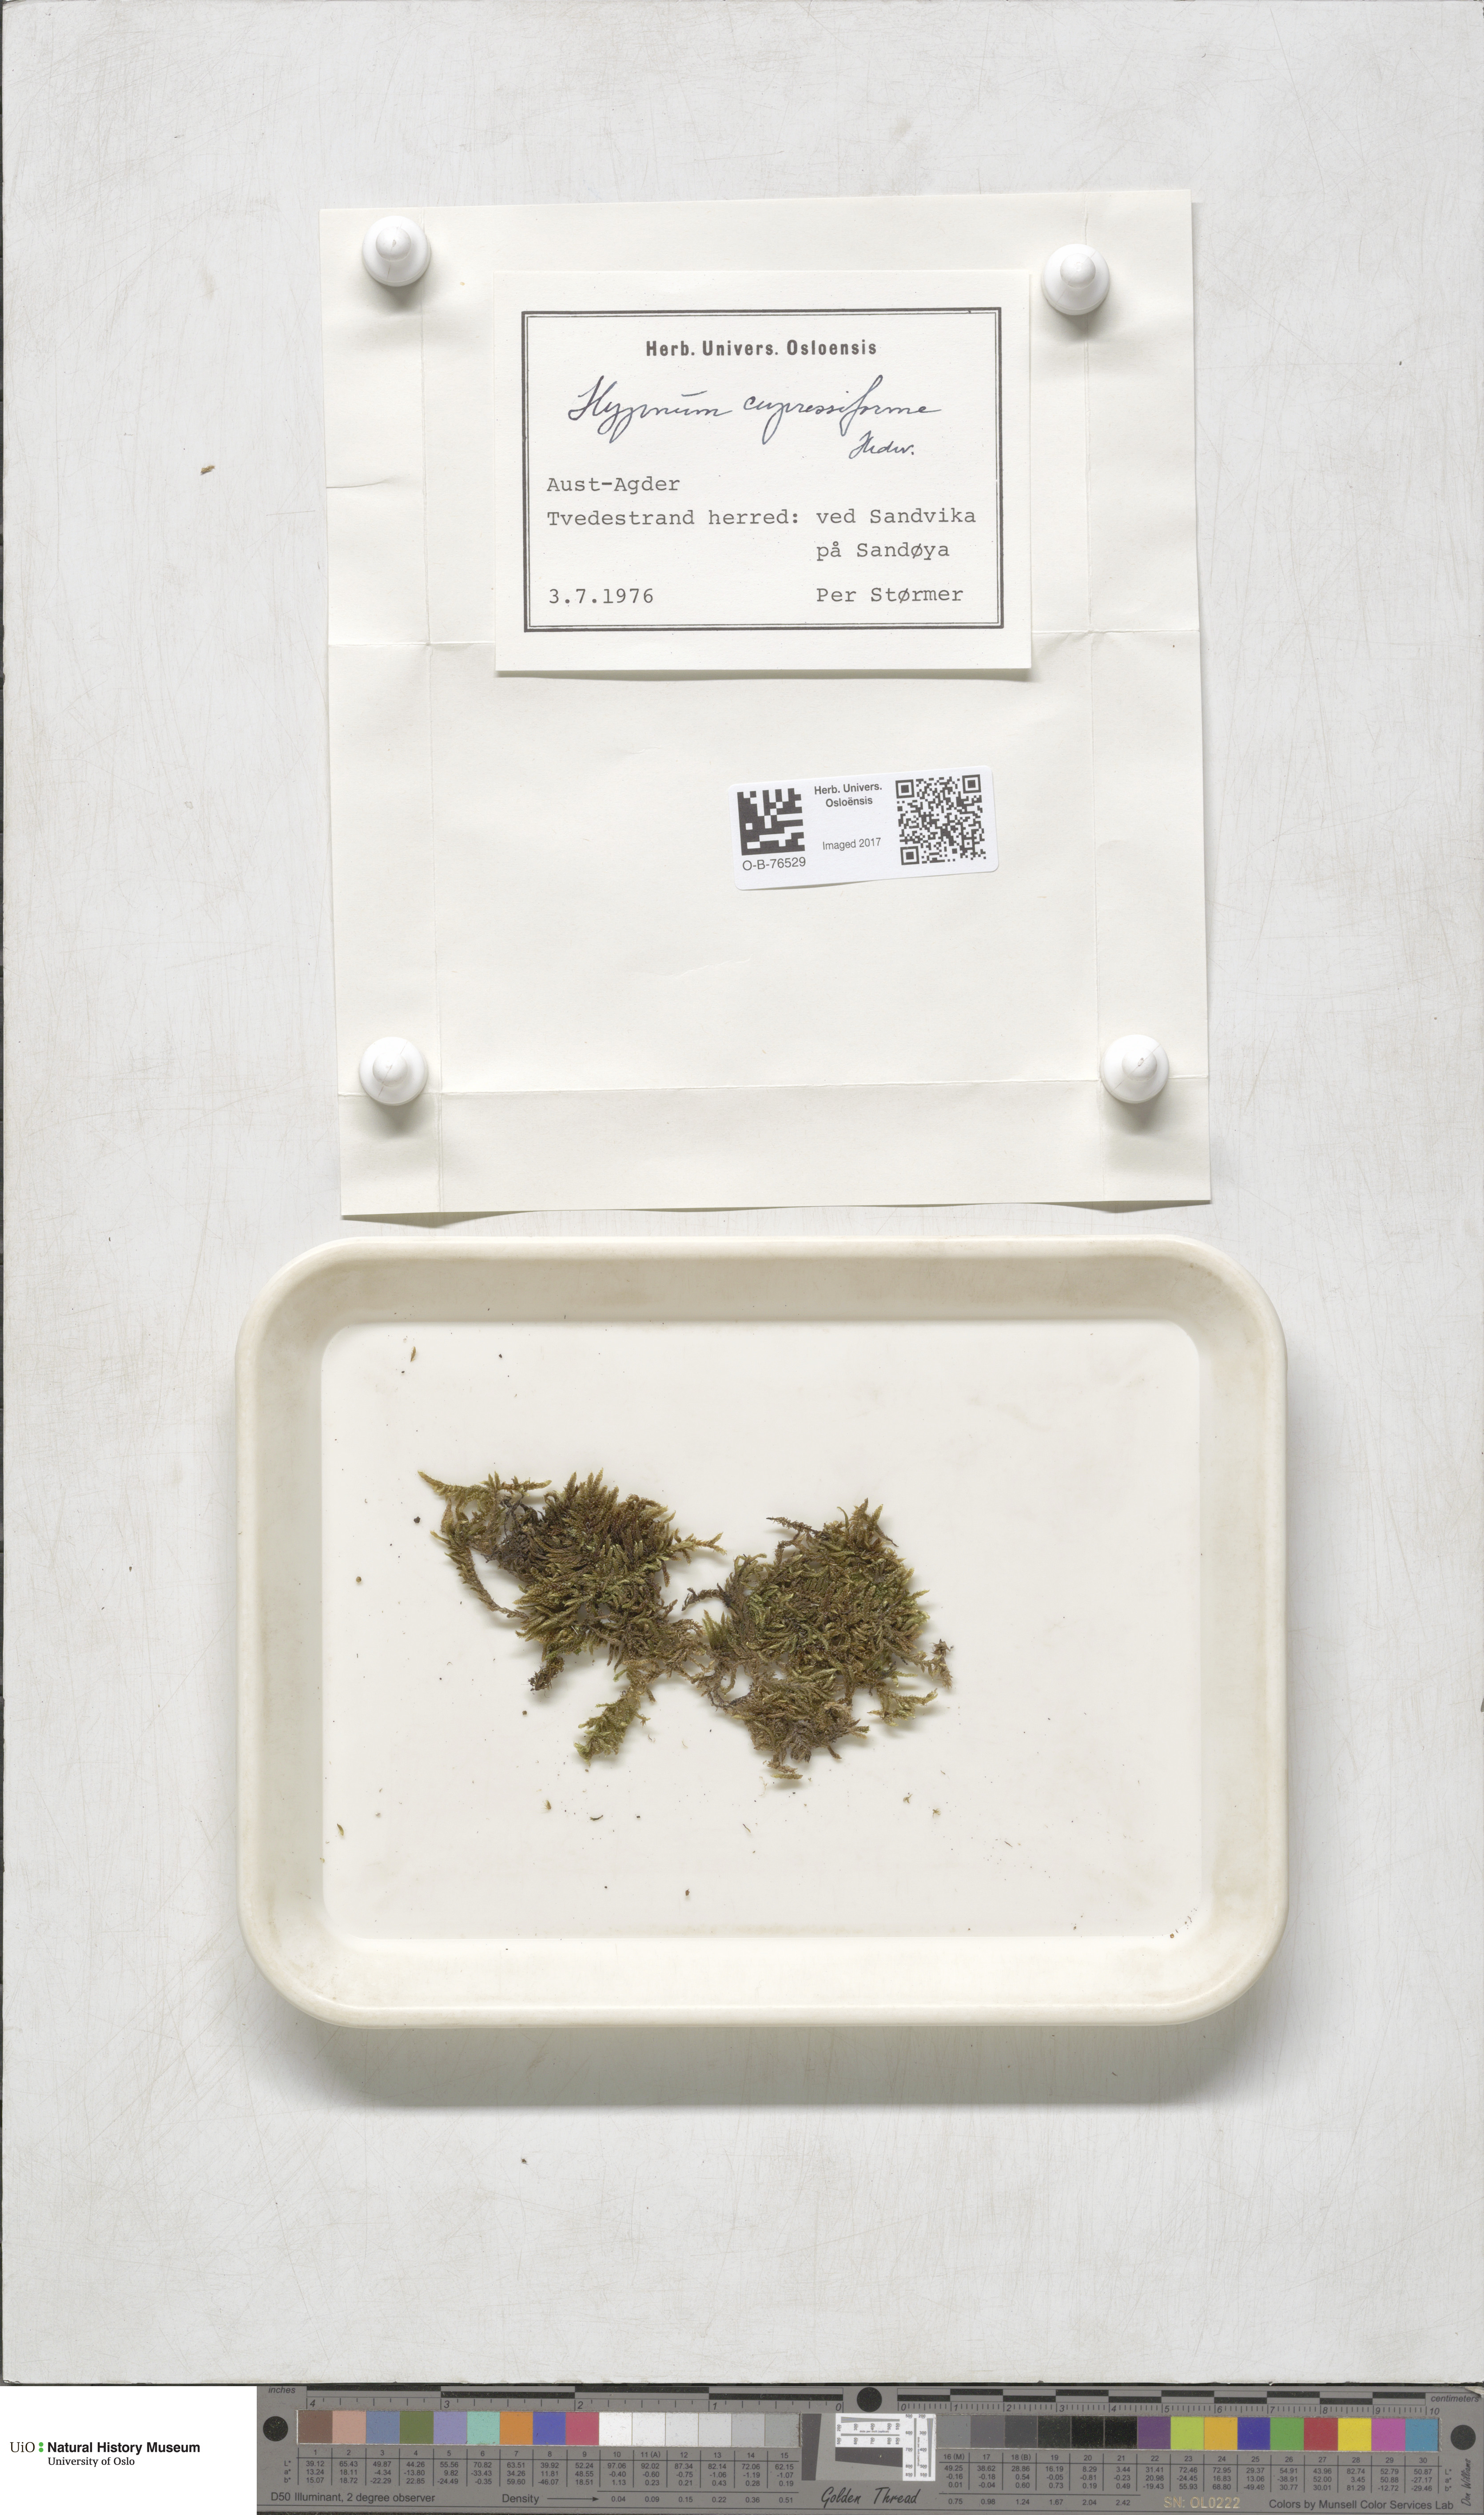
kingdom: Plantae
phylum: Bryophyta
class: Bryopsida
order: Hypnales
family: Hypnaceae
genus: Hypnum
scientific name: Hypnum cupressiforme
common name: Cypress-leaved plait-moss
